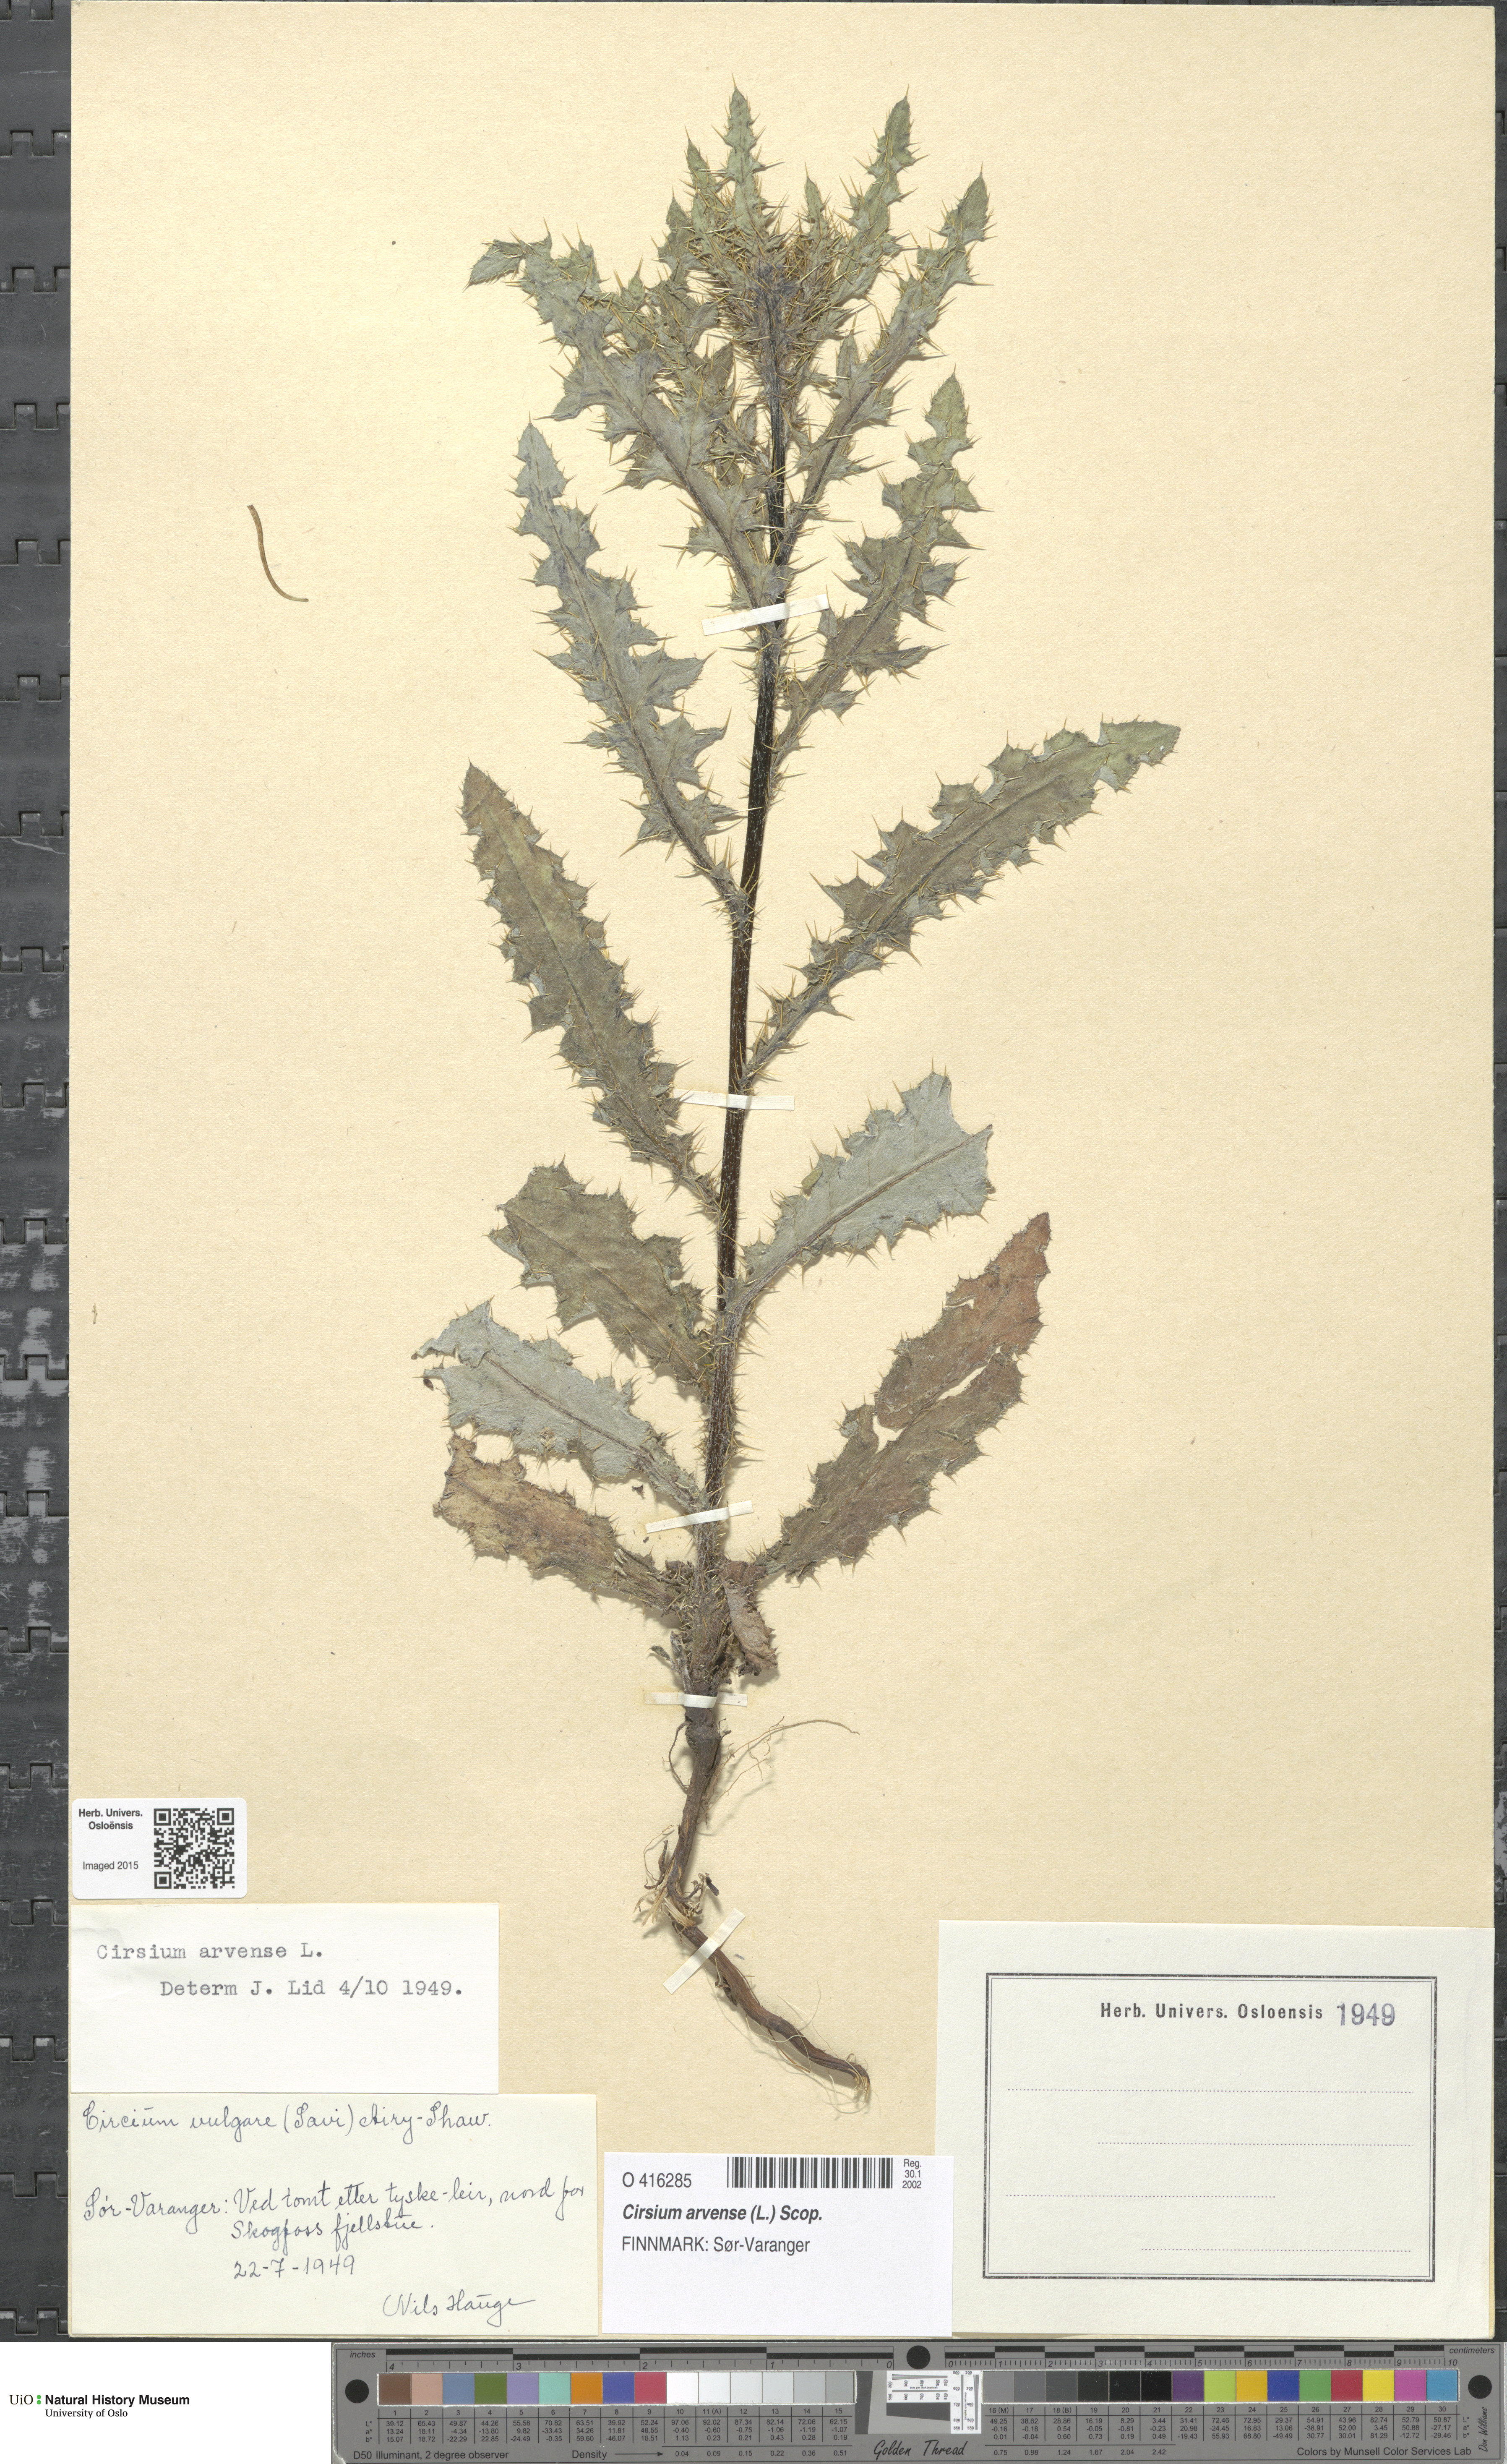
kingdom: Plantae
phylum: Tracheophyta
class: Magnoliopsida
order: Asterales
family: Asteraceae
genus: Cirsium
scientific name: Cirsium arvense
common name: Creeping thistle
